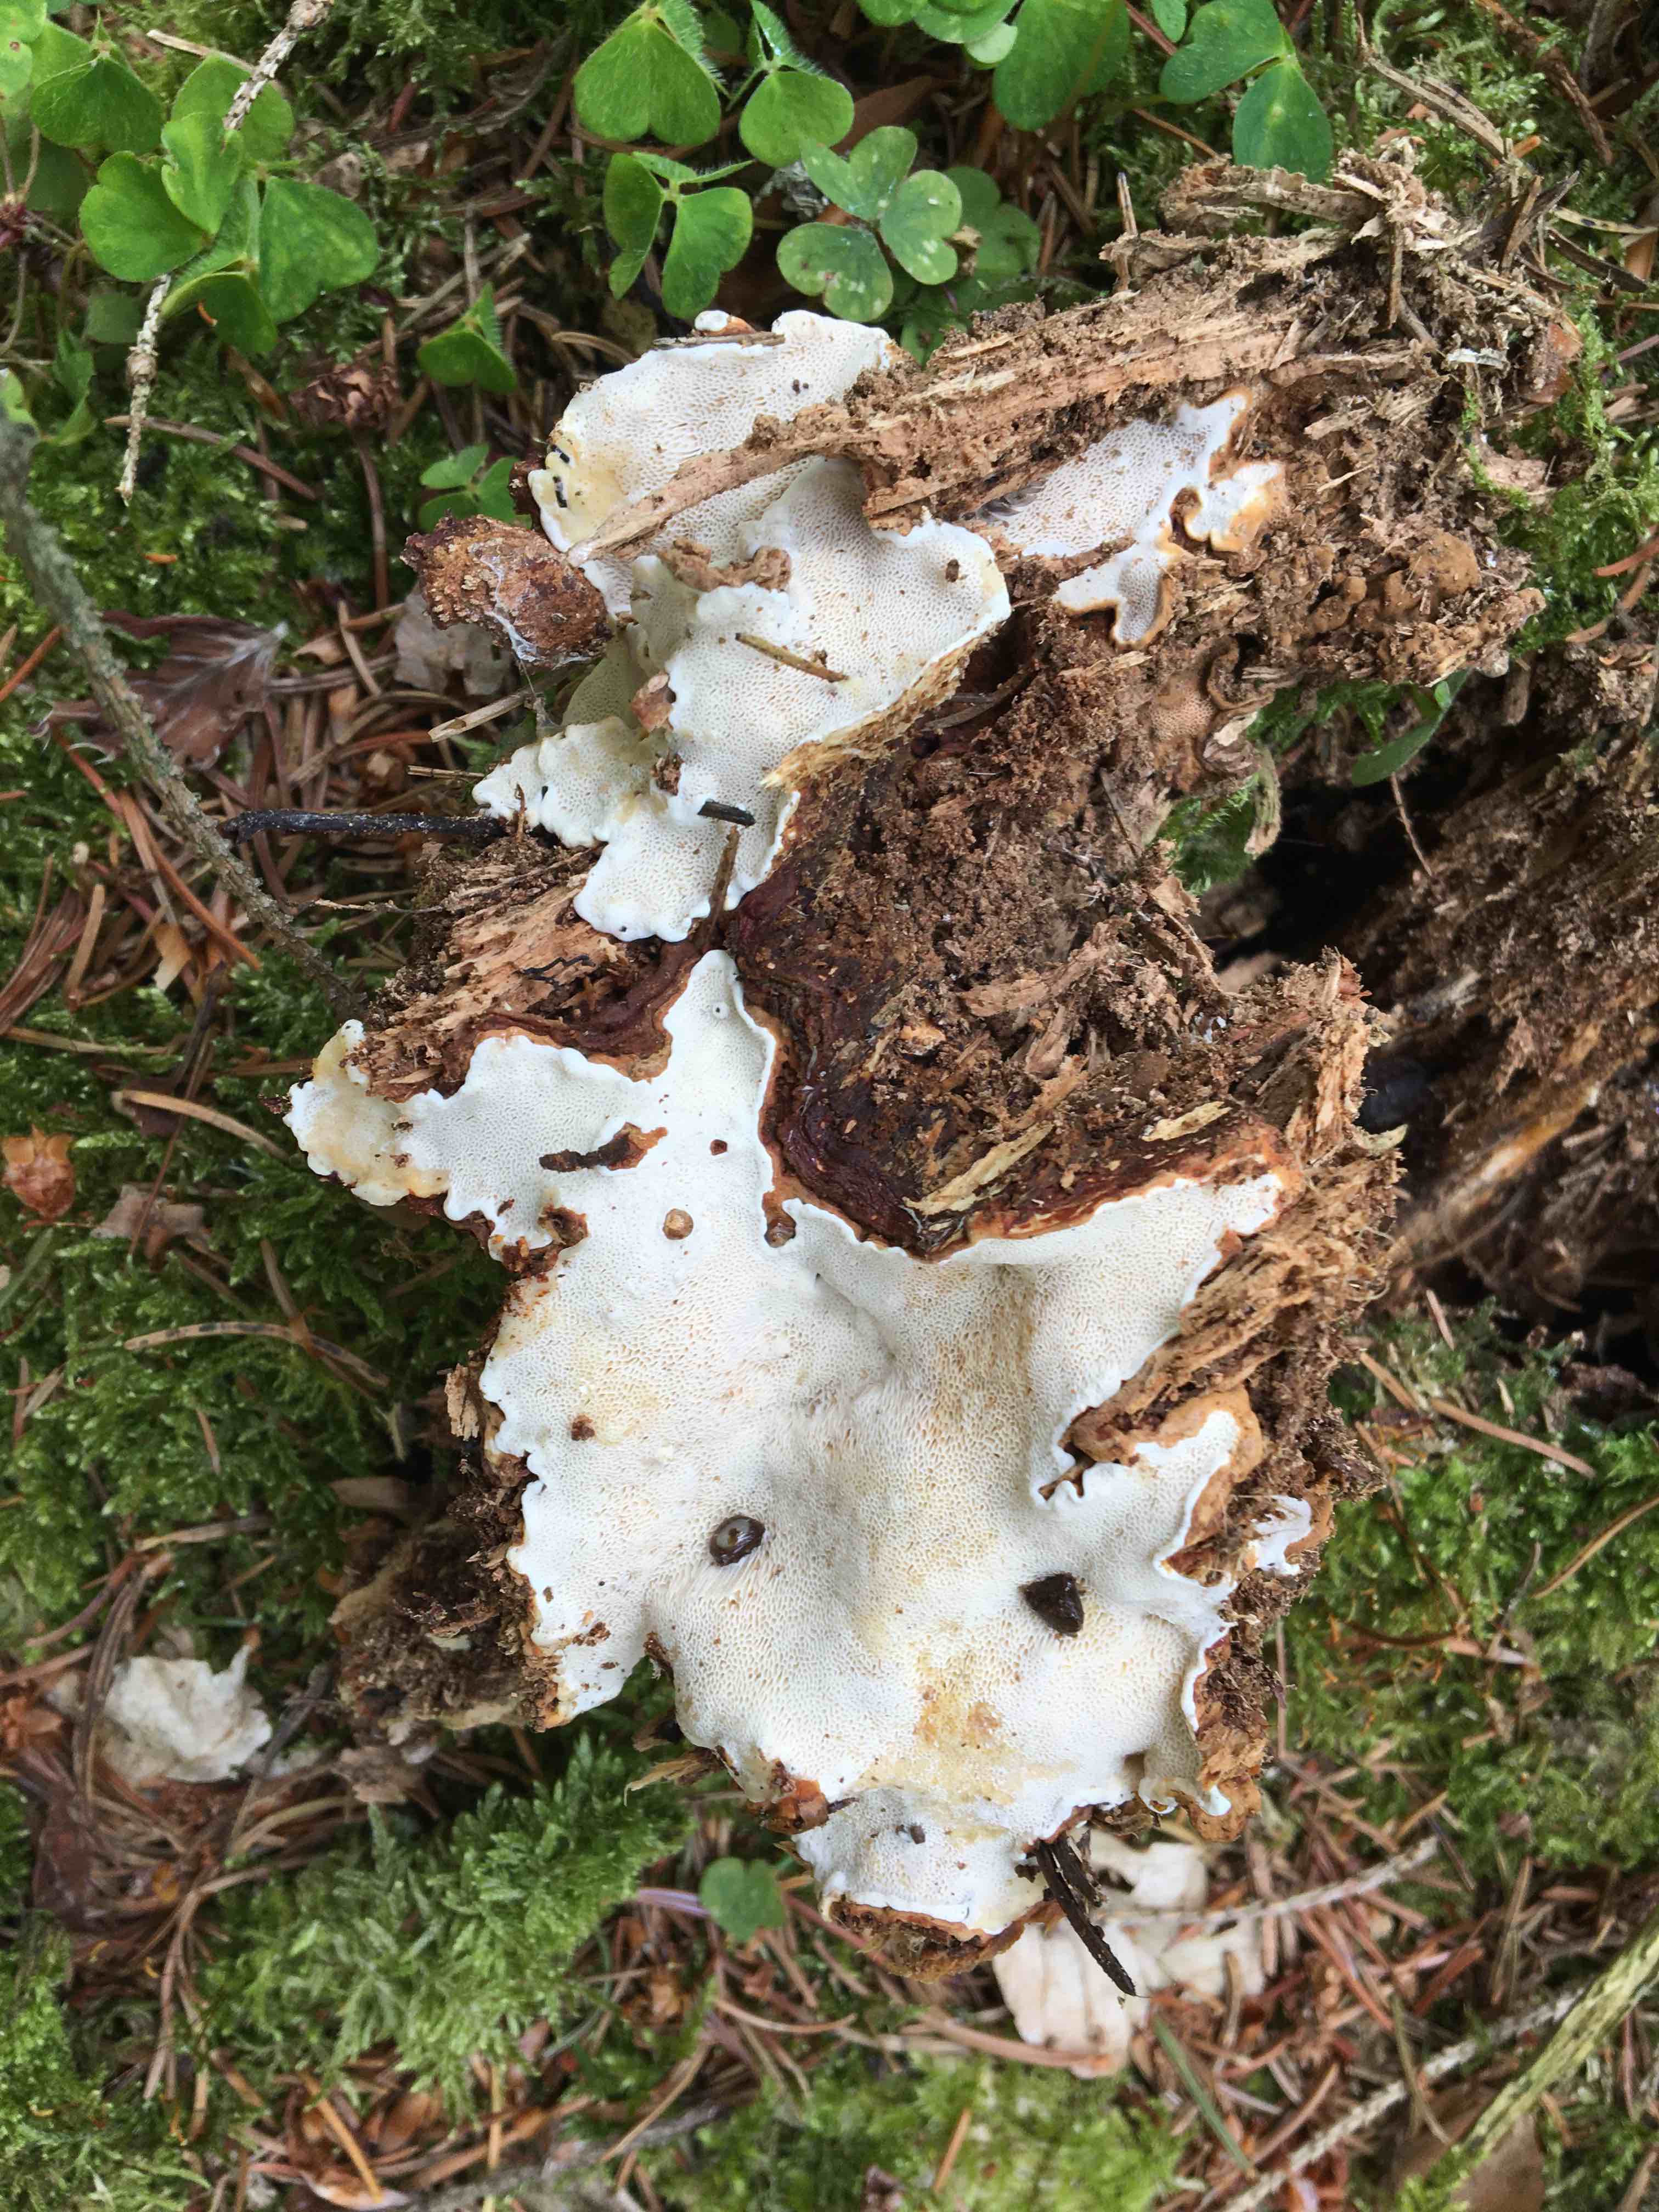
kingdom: Fungi
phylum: Basidiomycota
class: Agaricomycetes
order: Russulales
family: Bondarzewiaceae
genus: Heterobasidion
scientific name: Heterobasidion annosum
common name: almindelig rodfordærver
